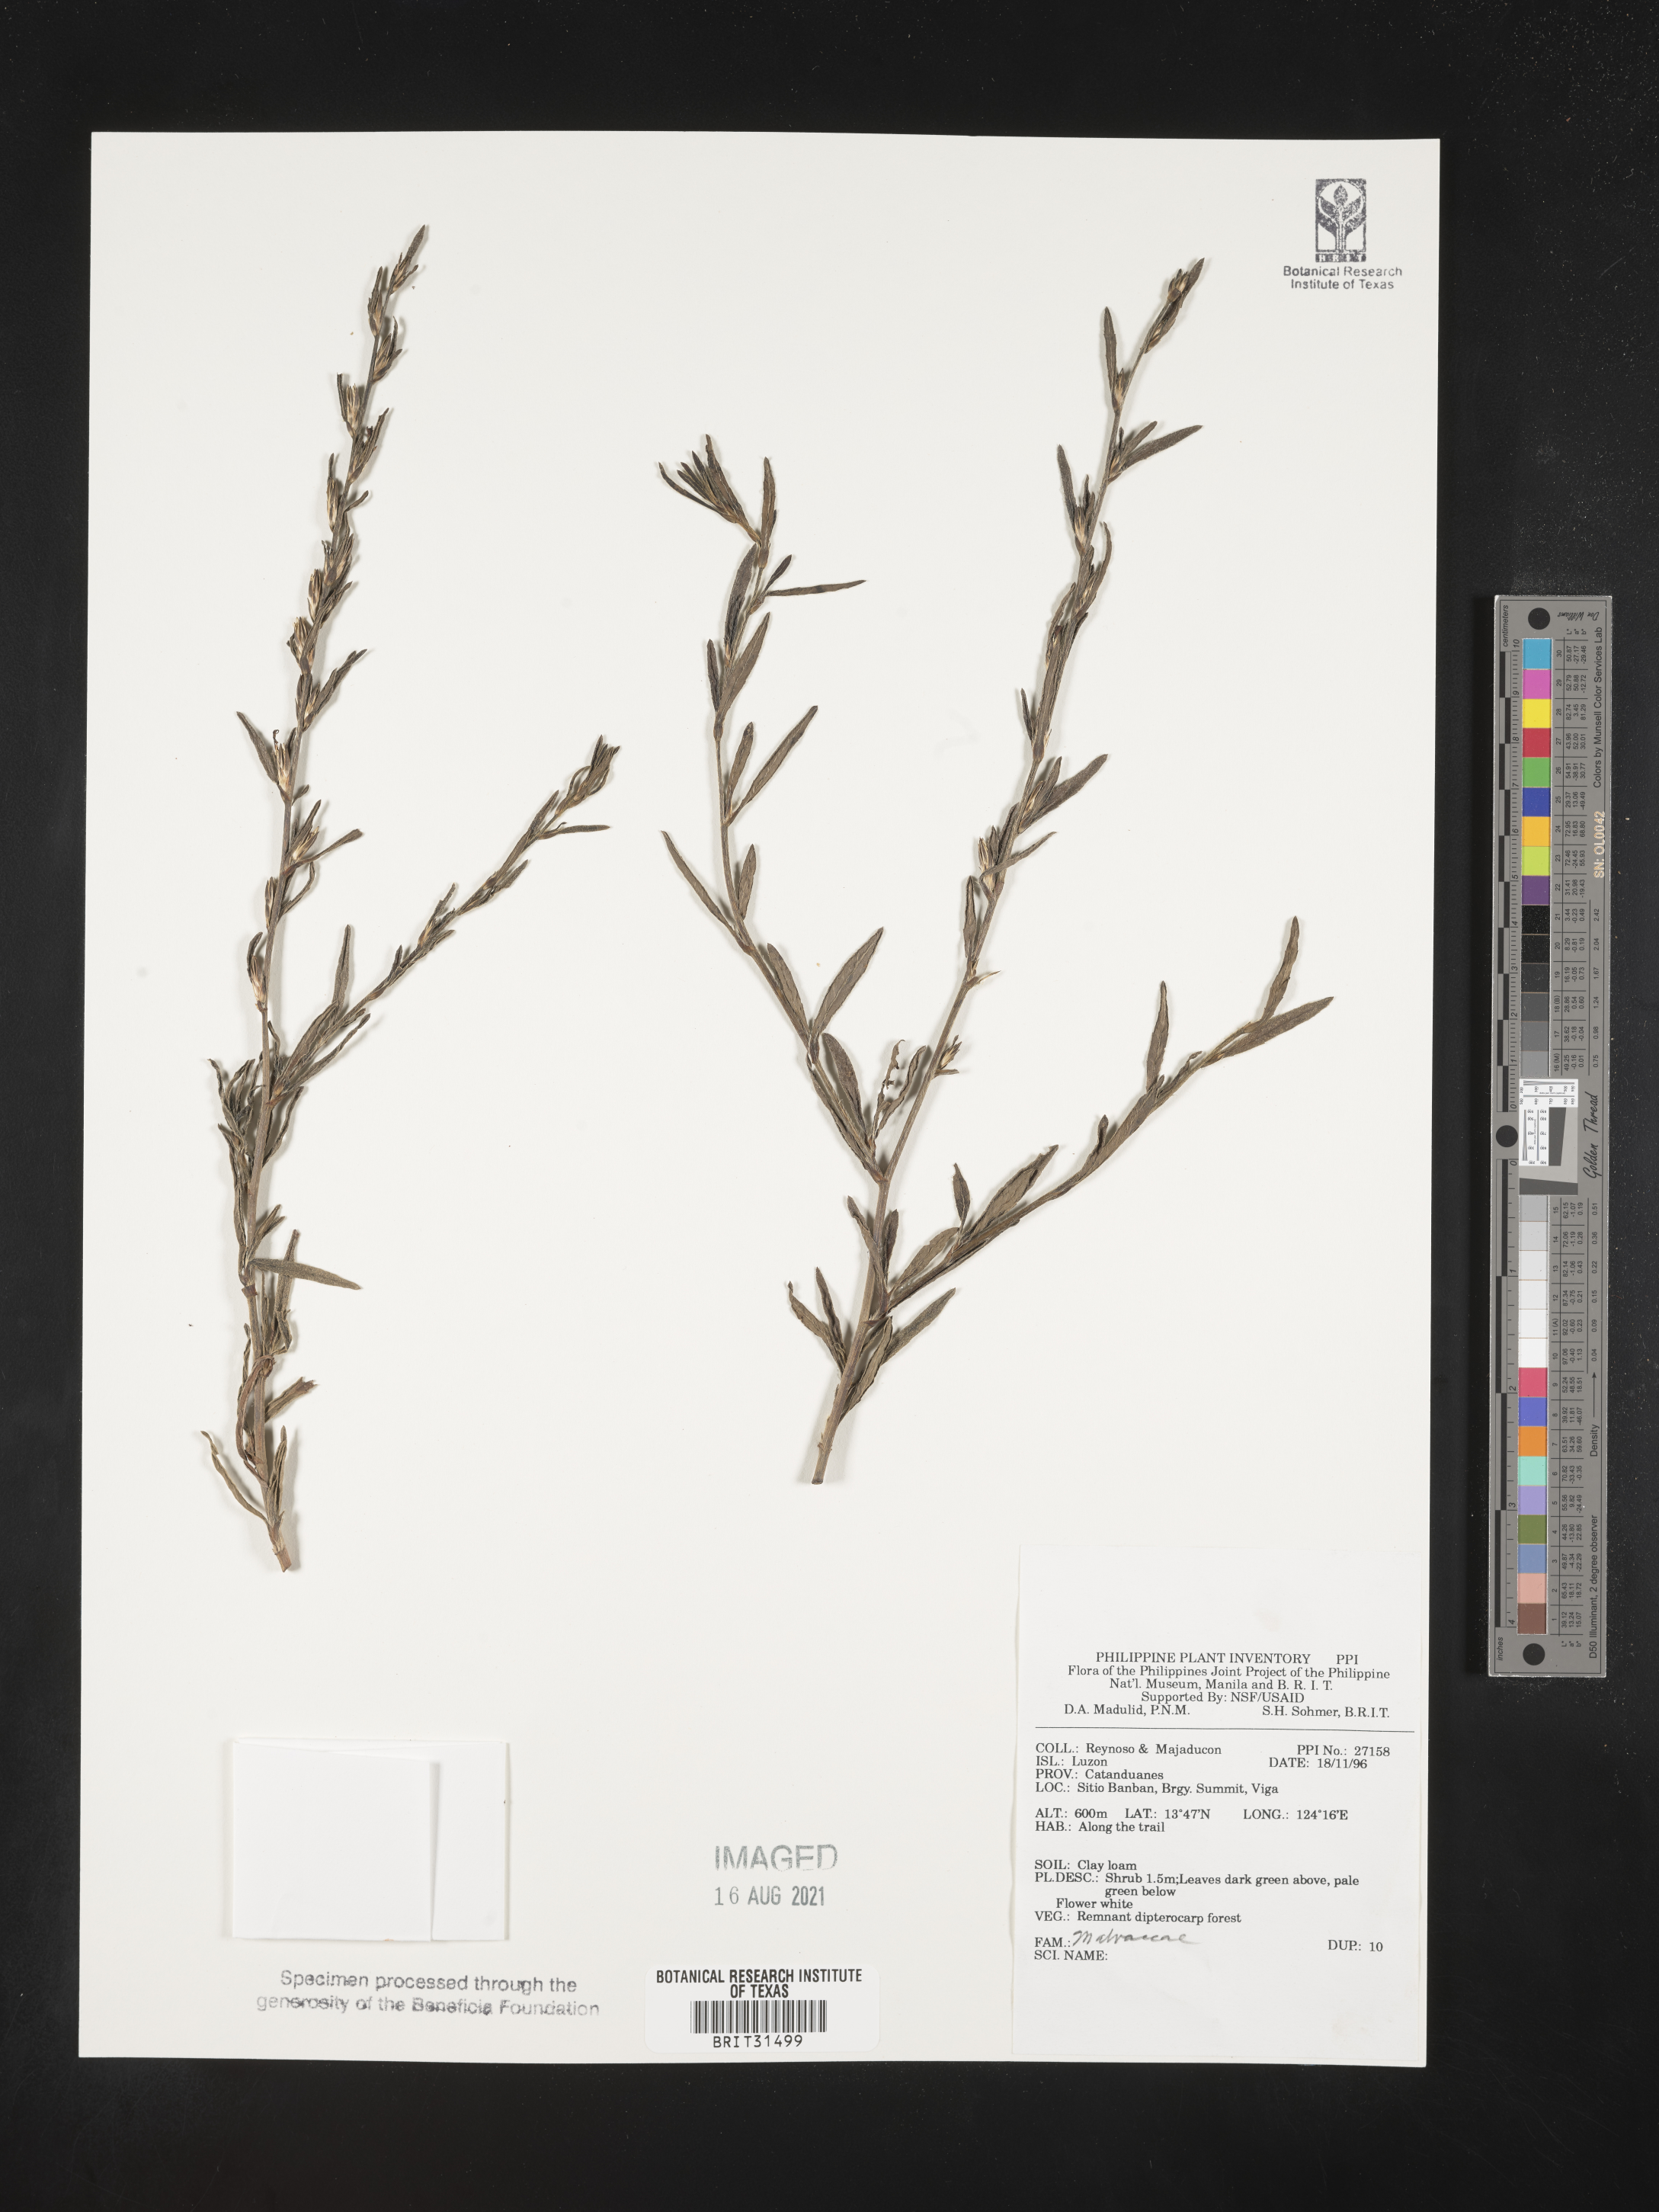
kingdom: Plantae
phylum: Tracheophyta
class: Magnoliopsida
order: Malvales
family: Malvaceae
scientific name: Malvaceae
